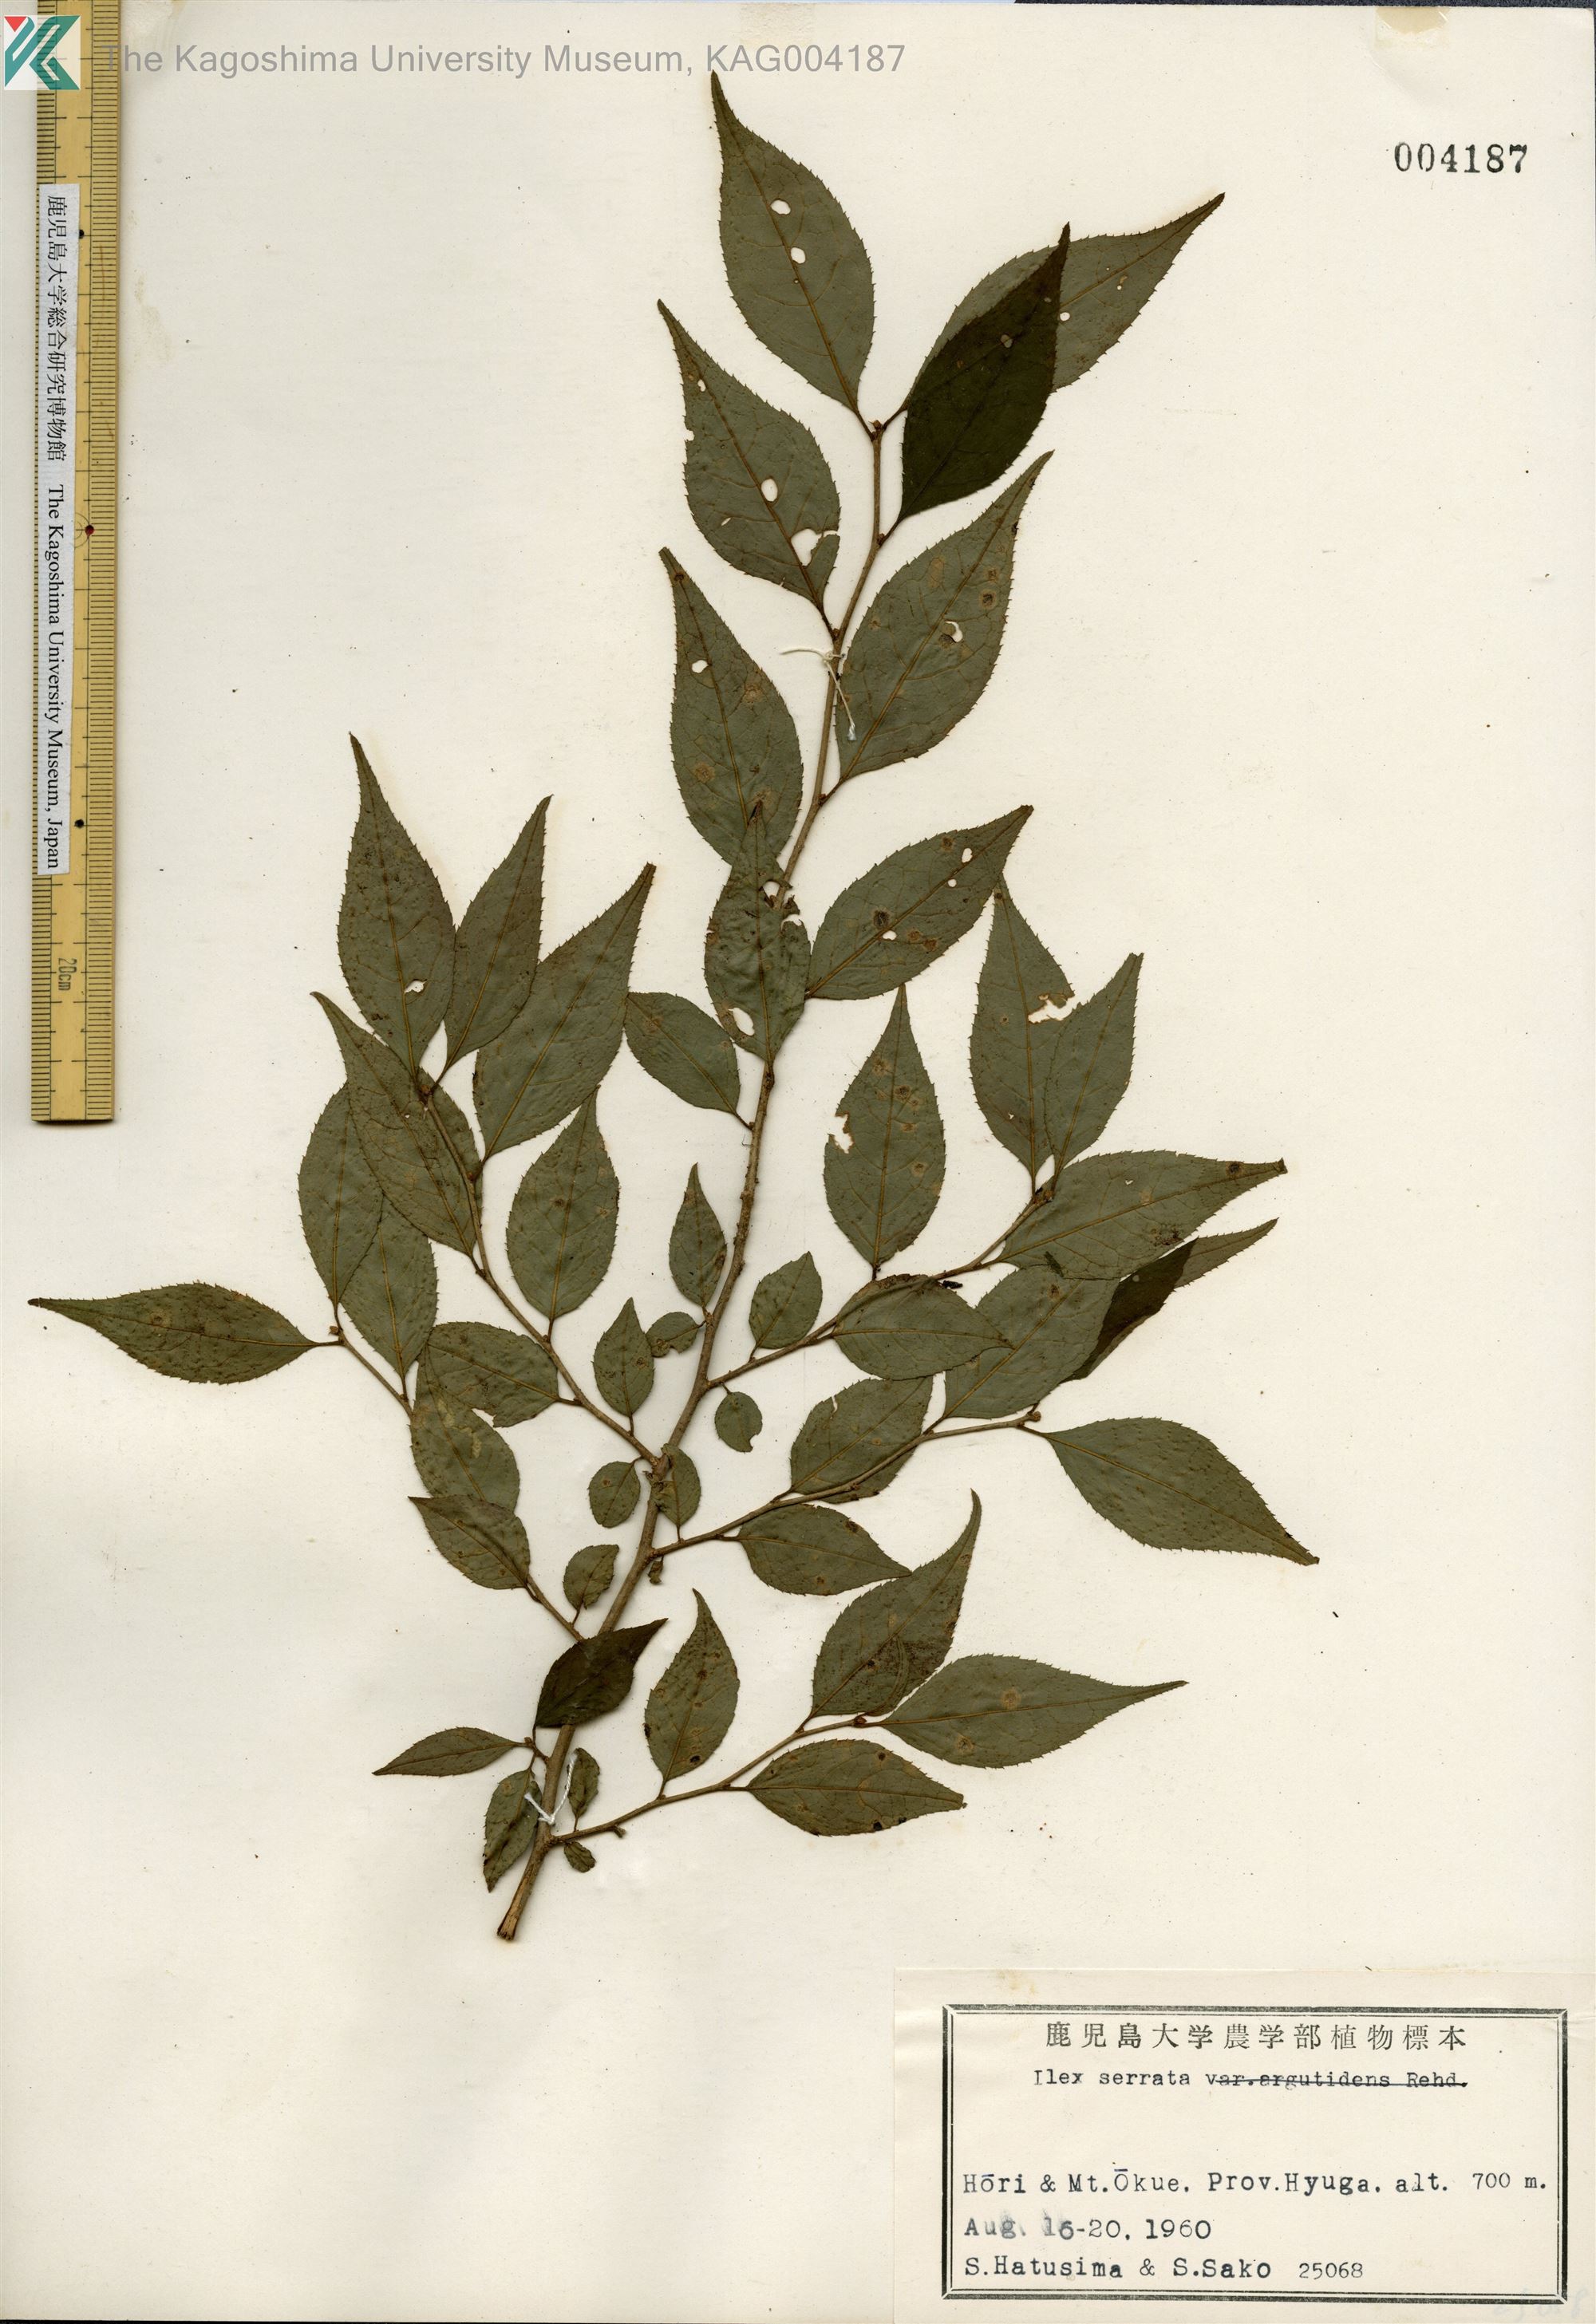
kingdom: Plantae
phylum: Tracheophyta
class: Magnoliopsida
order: Aquifoliales
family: Aquifoliaceae
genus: Ilex
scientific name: Ilex serrata
